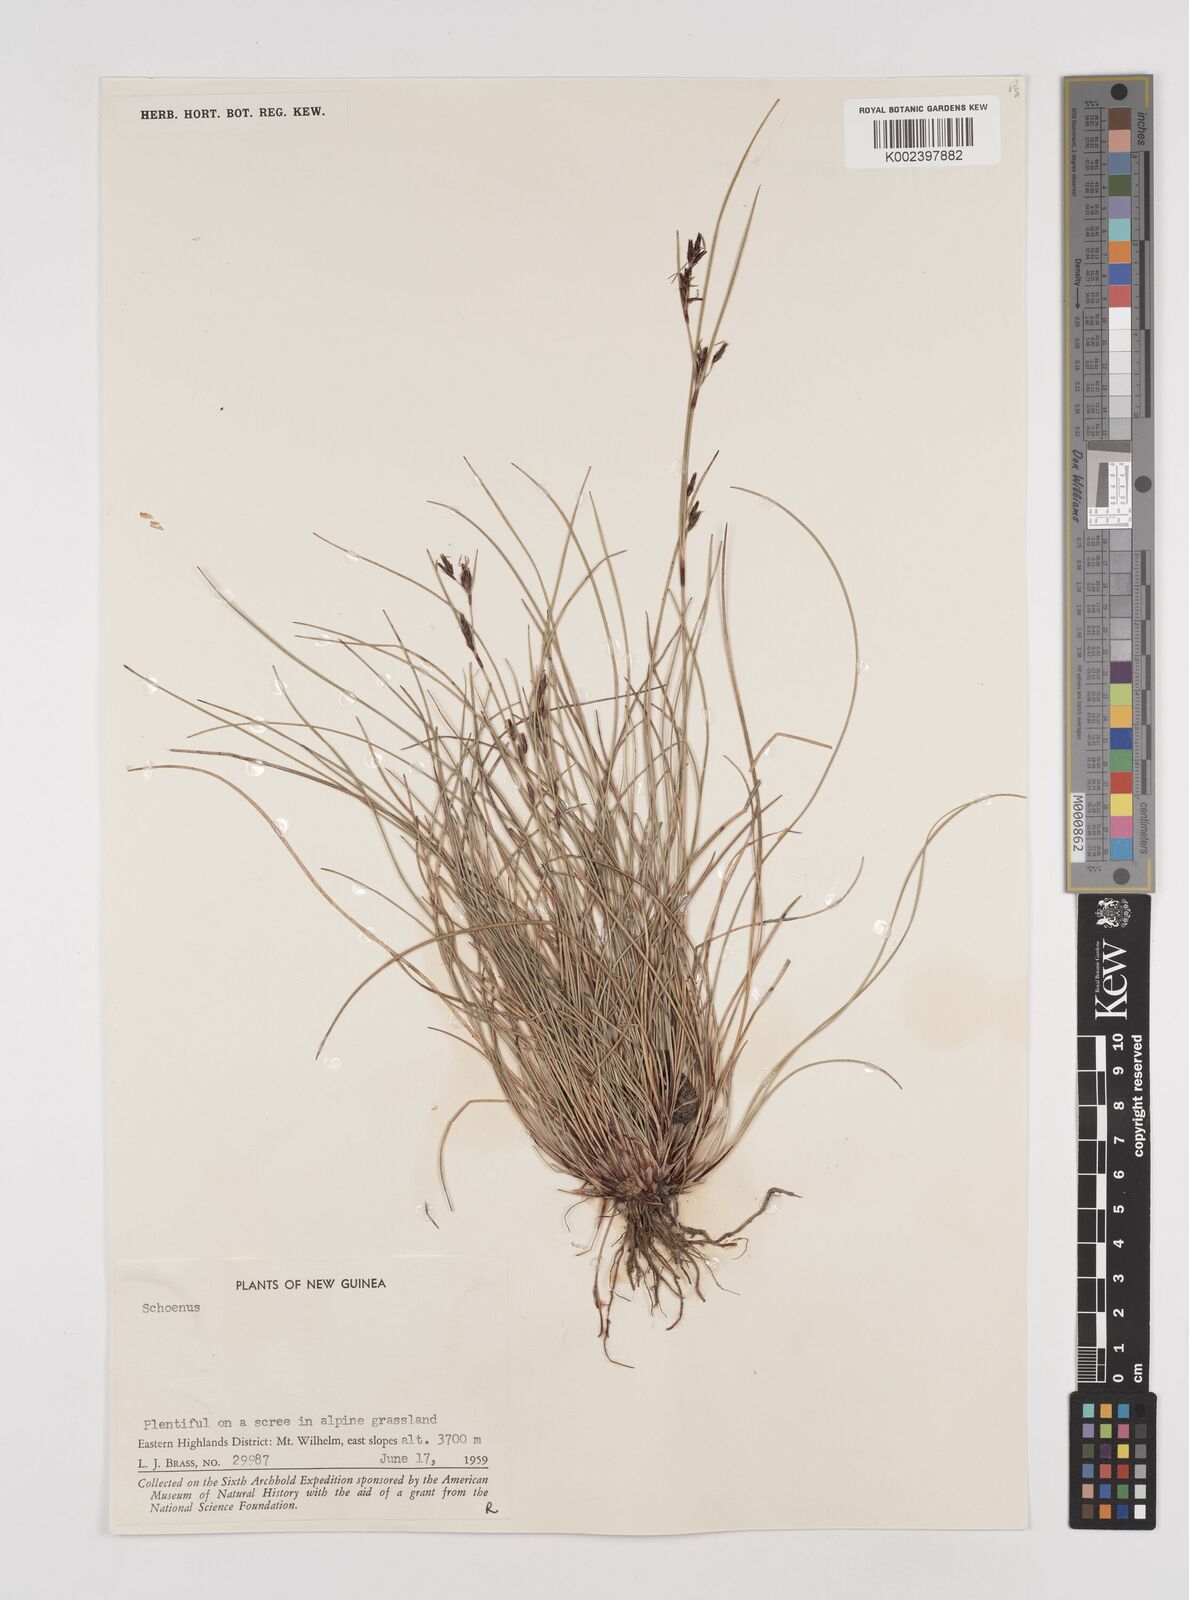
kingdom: Plantae
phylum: Tracheophyta
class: Liliopsida
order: Poales
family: Cyperaceae
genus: Schoenus
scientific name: Schoenus curvulus
